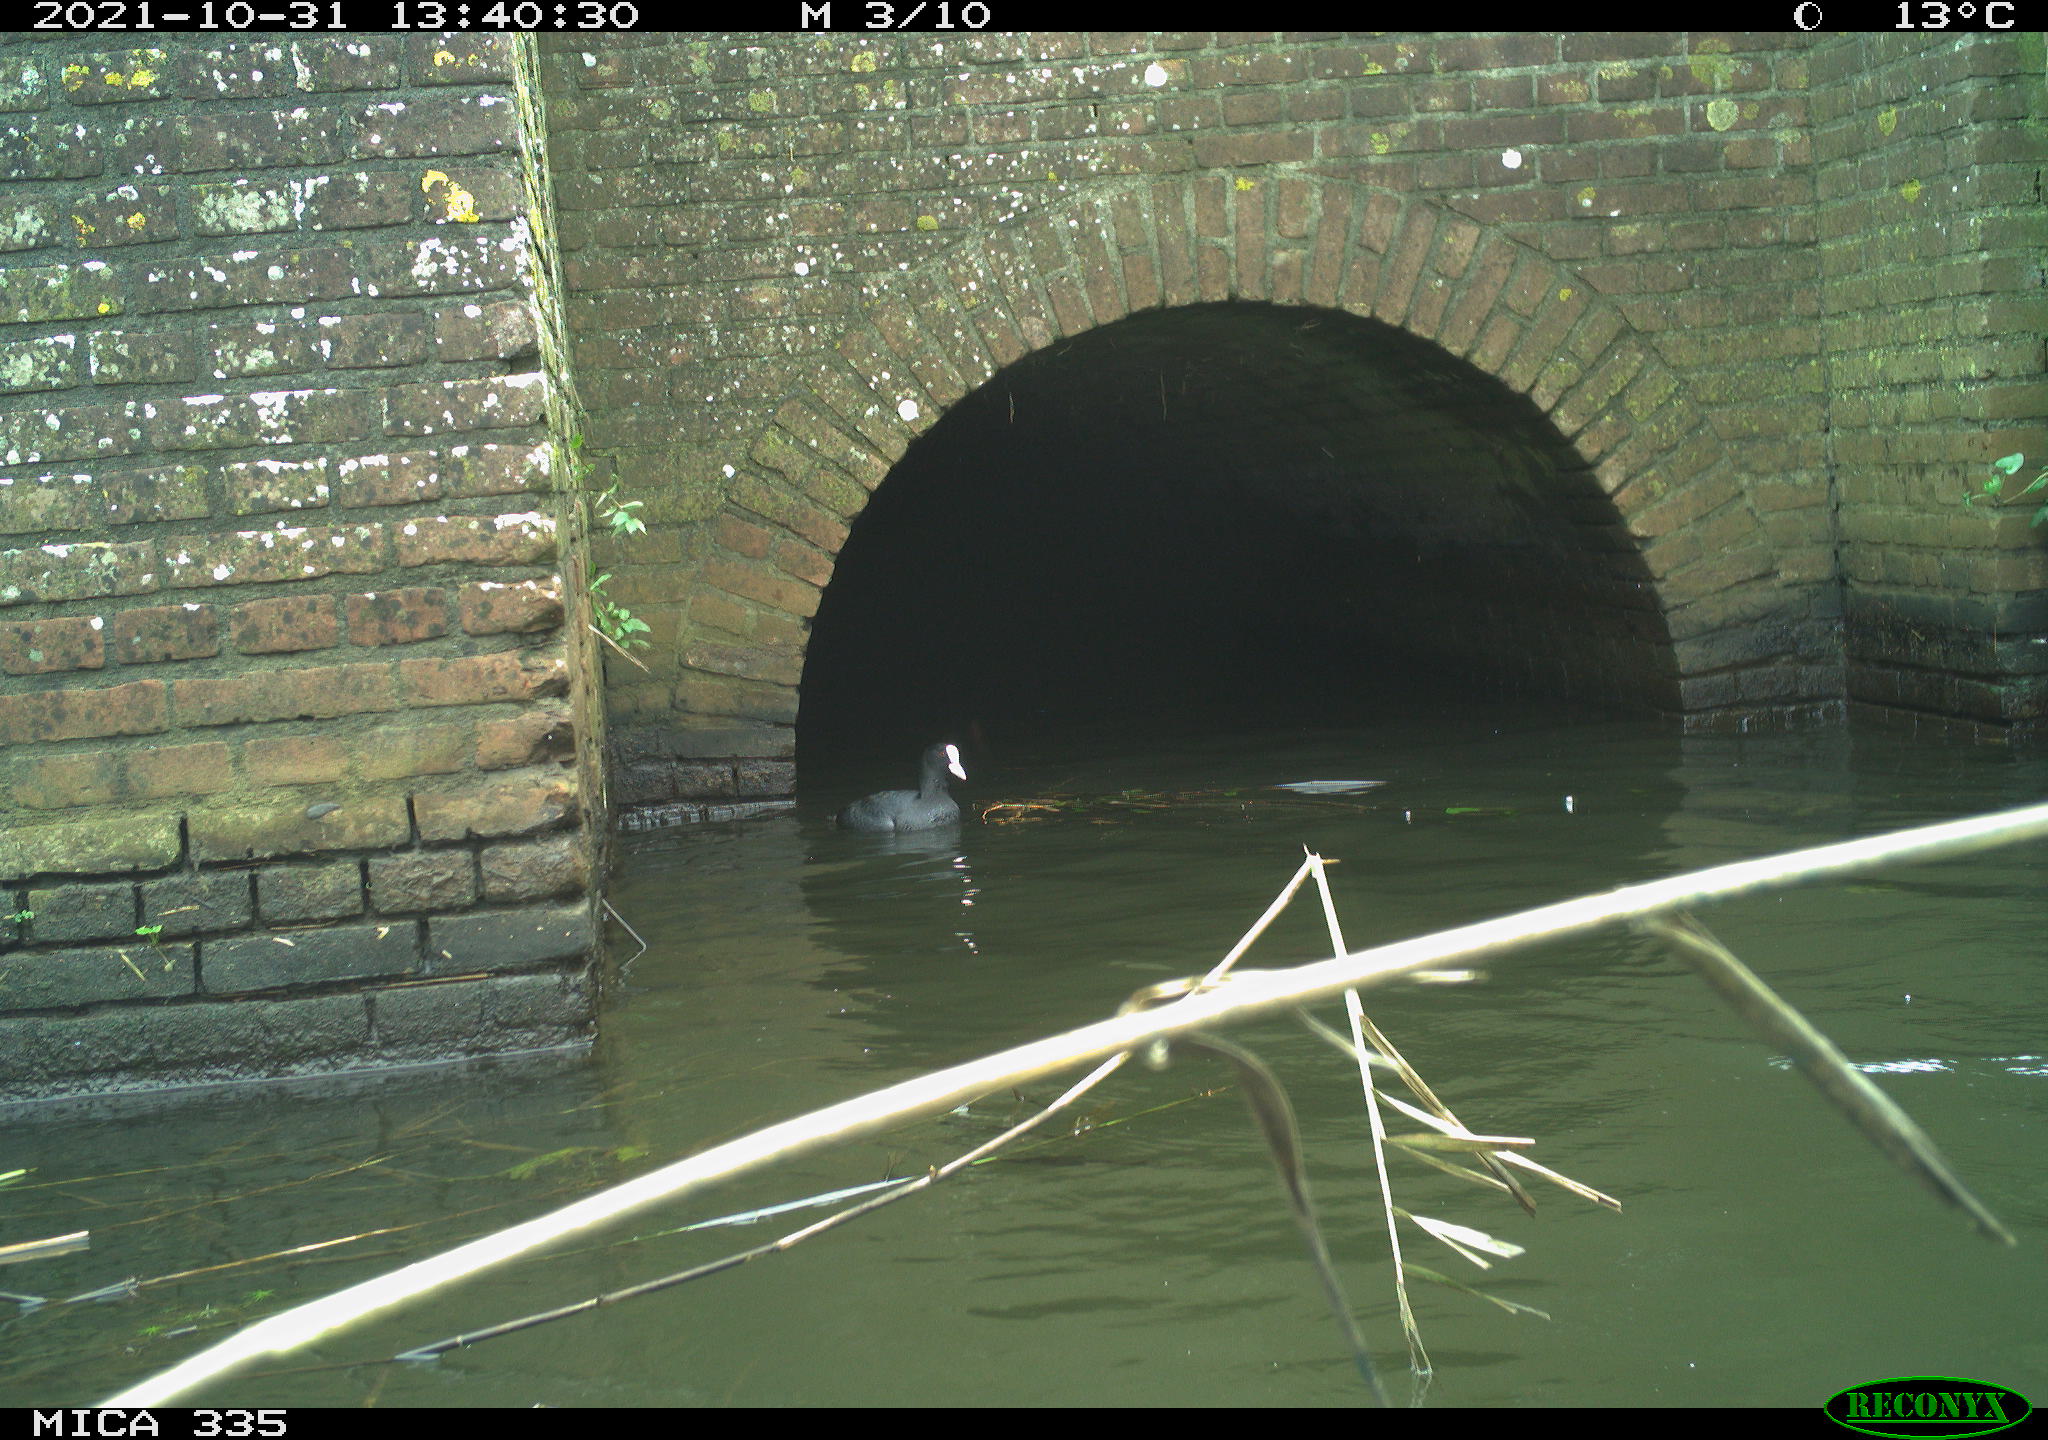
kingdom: Animalia
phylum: Chordata
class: Aves
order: Gruiformes
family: Rallidae
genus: Fulica
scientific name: Fulica atra
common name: Eurasian coot
